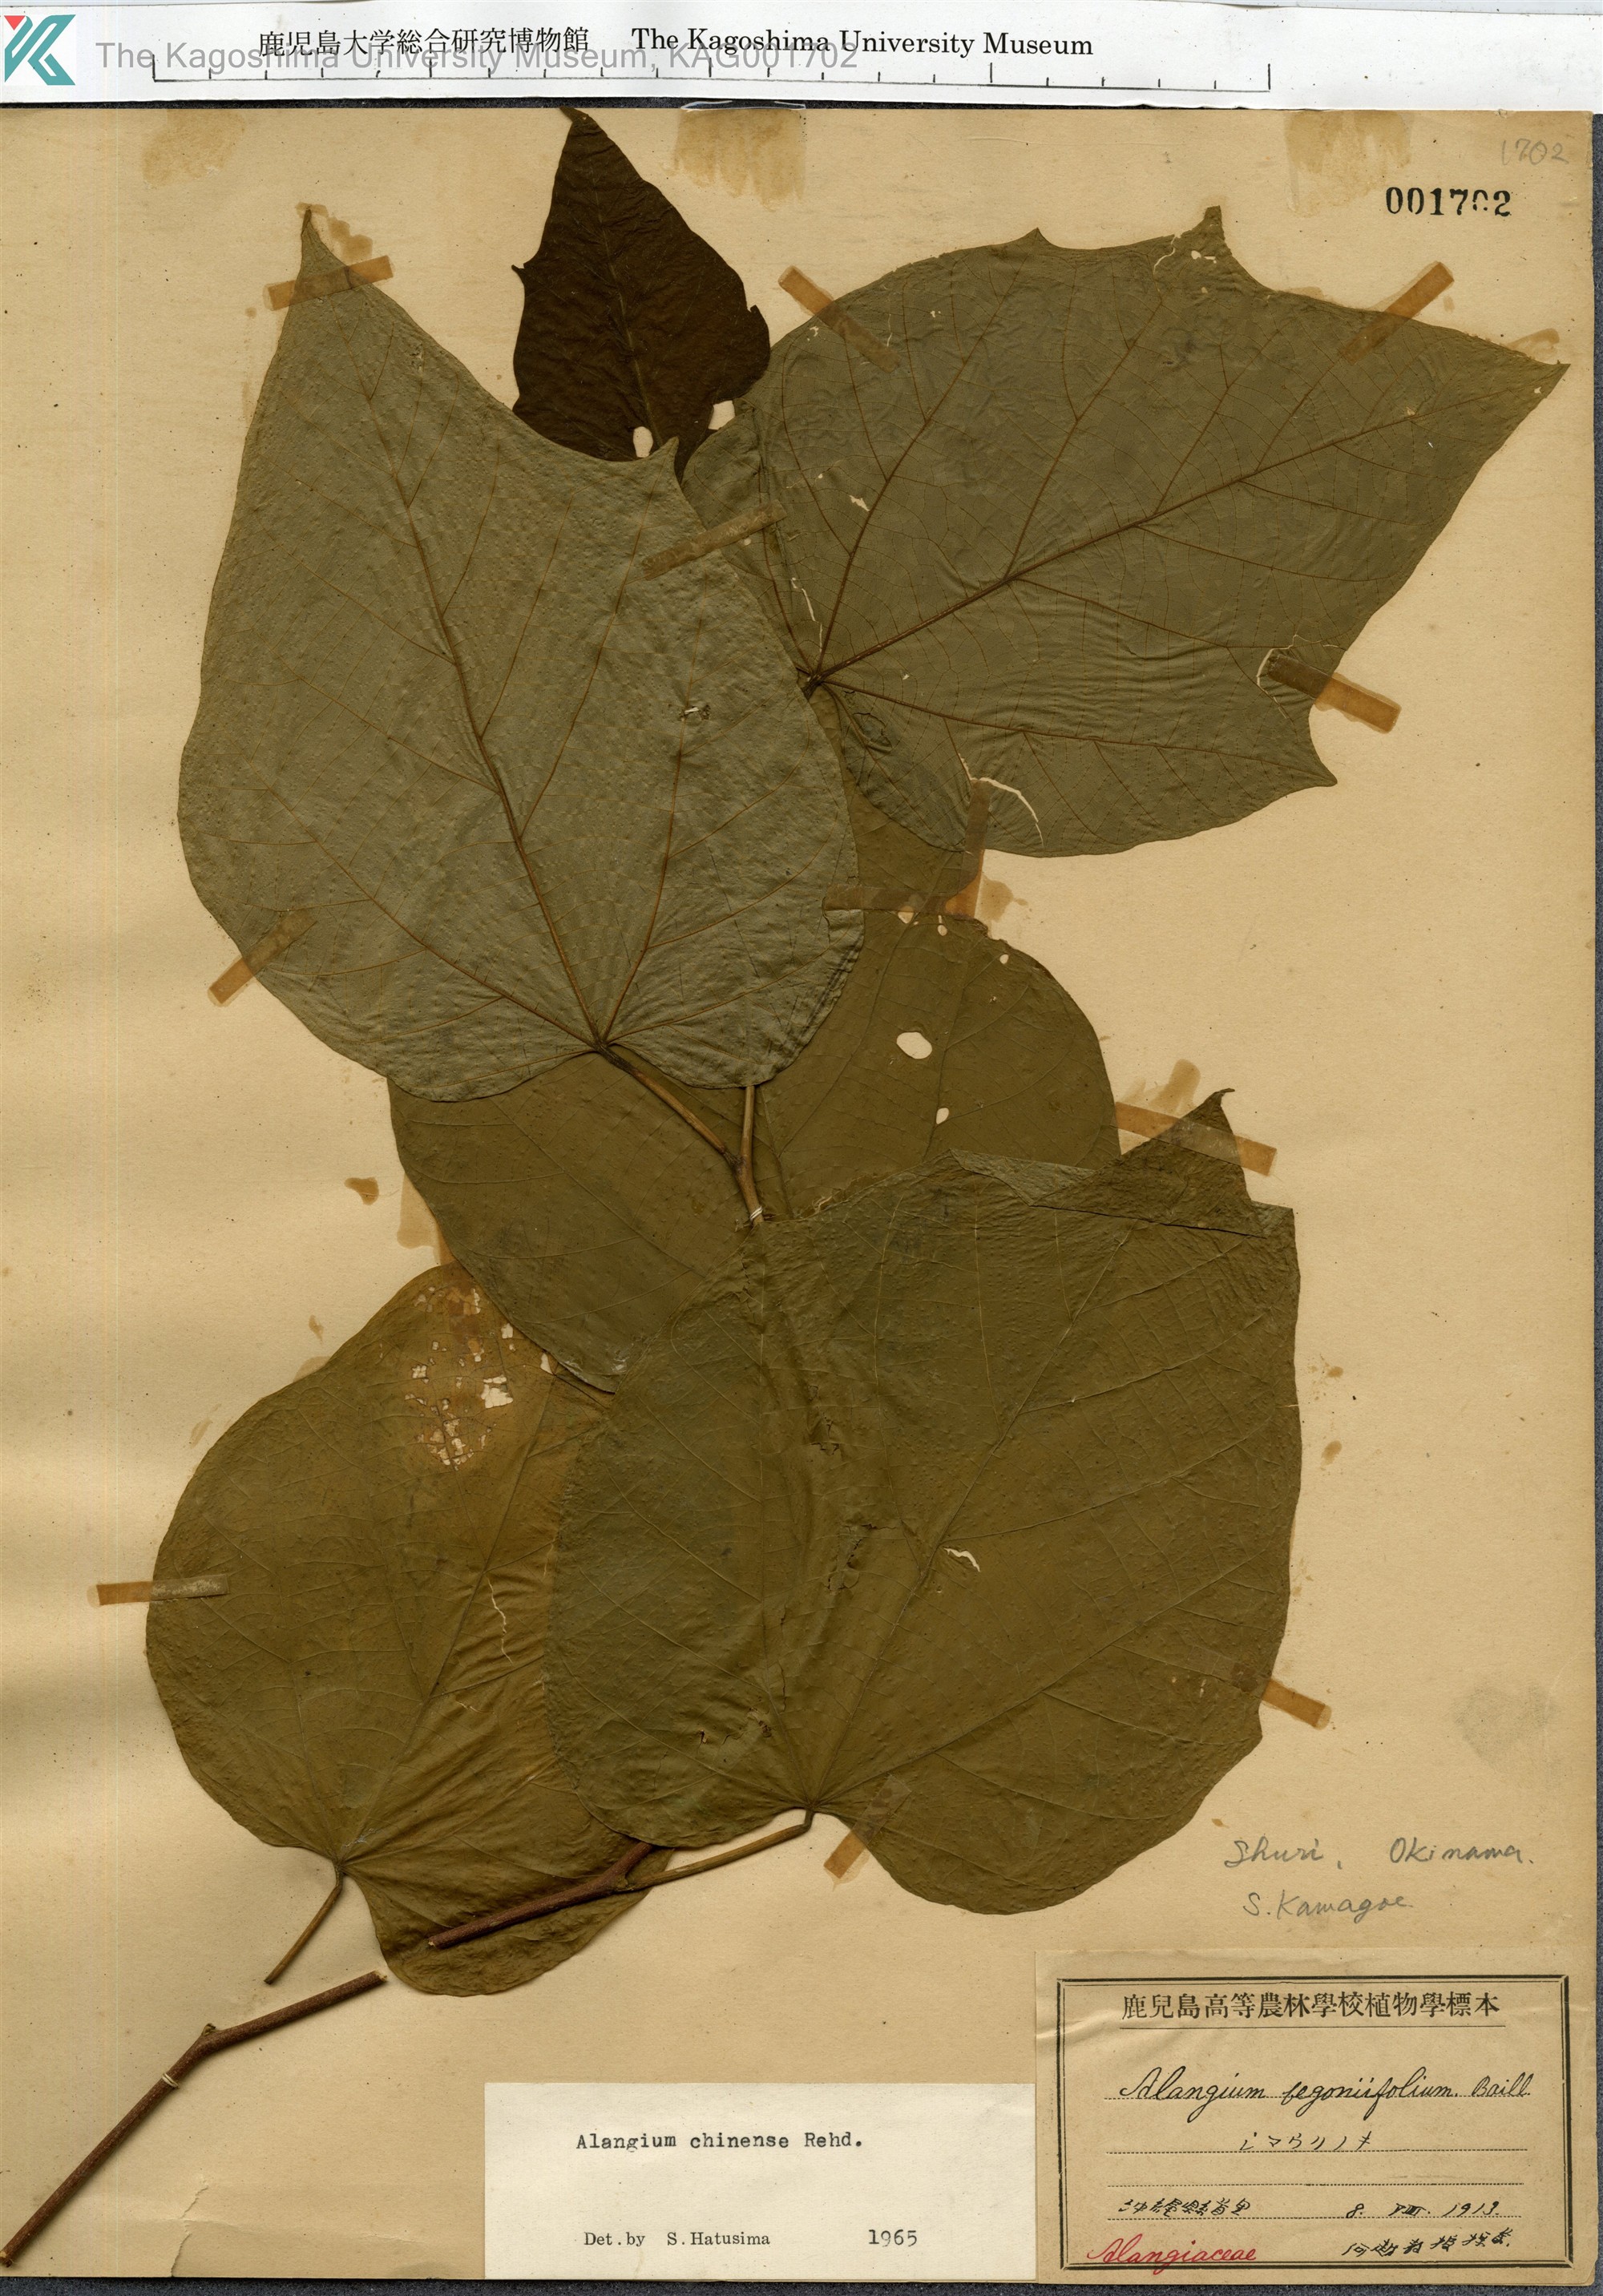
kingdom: Plantae
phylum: Tracheophyta
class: Magnoliopsida
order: Cornales
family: Cornaceae
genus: Alangium
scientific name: Alangium chinense
